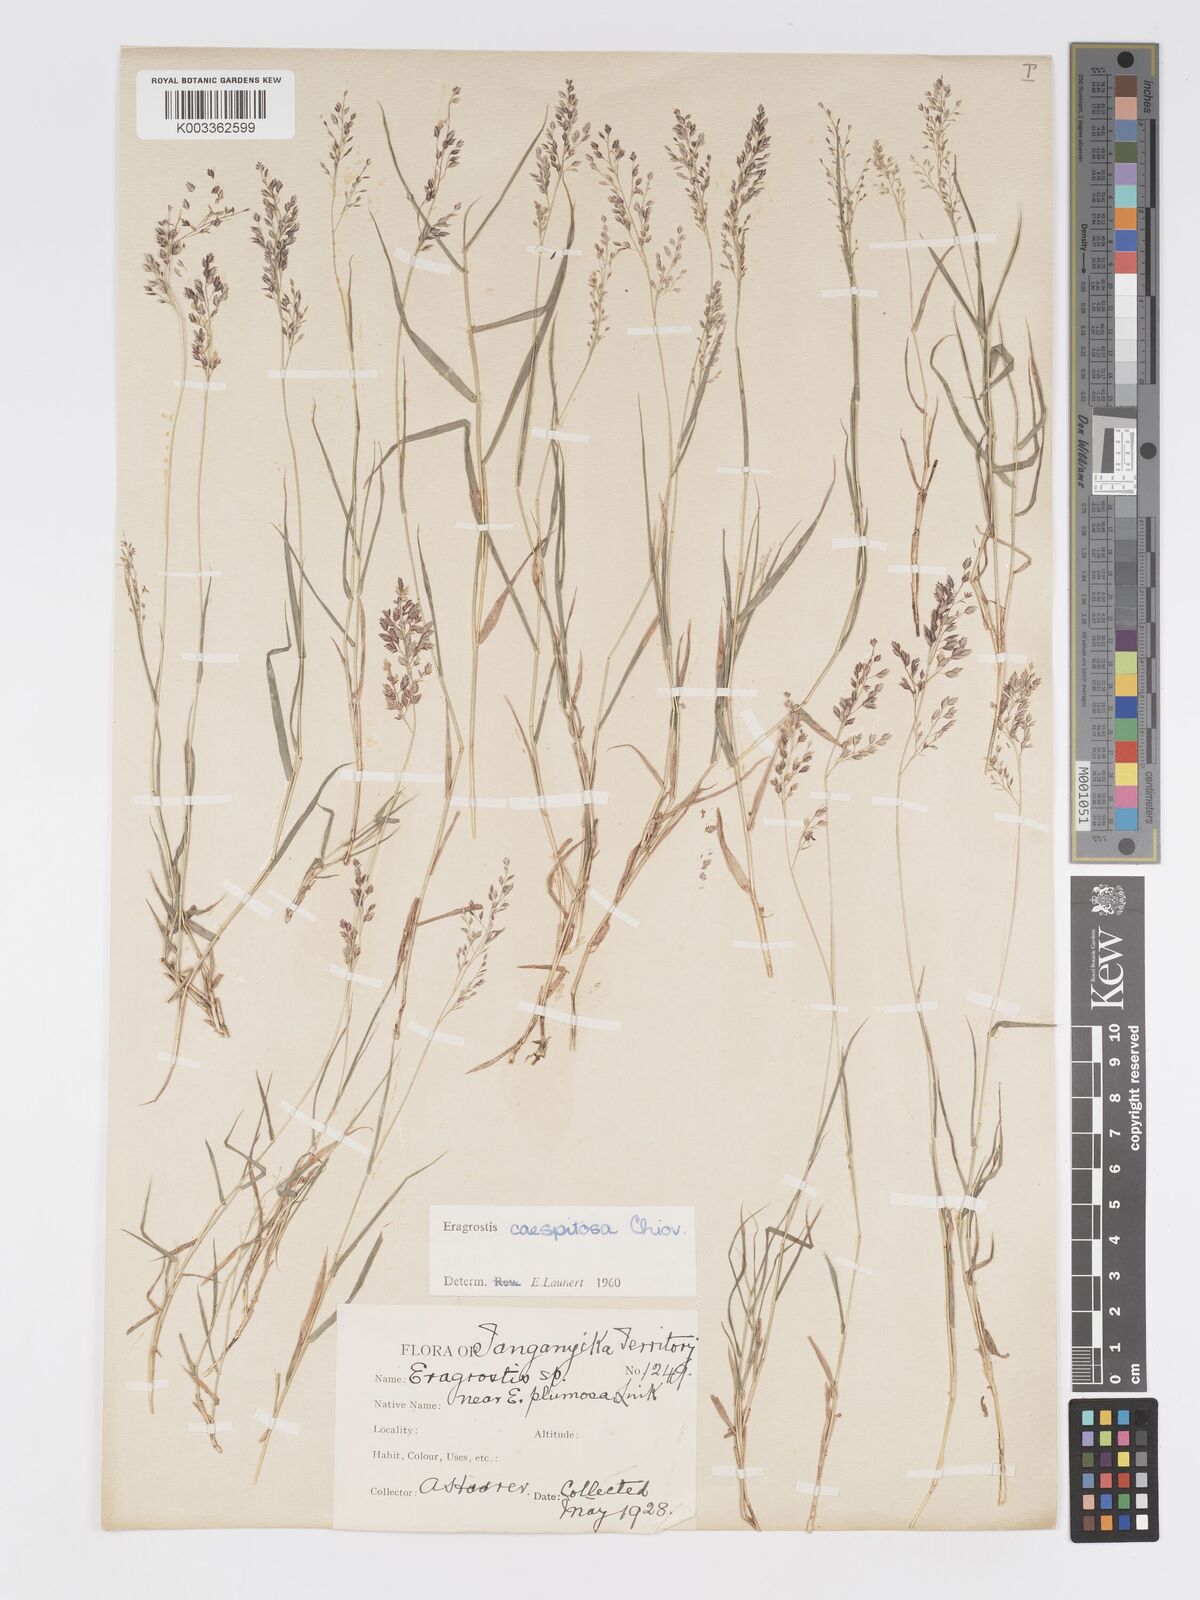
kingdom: Plantae
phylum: Tracheophyta
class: Liliopsida
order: Poales
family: Poaceae
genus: Eragrostis
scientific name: Eragrostis caespitosa
